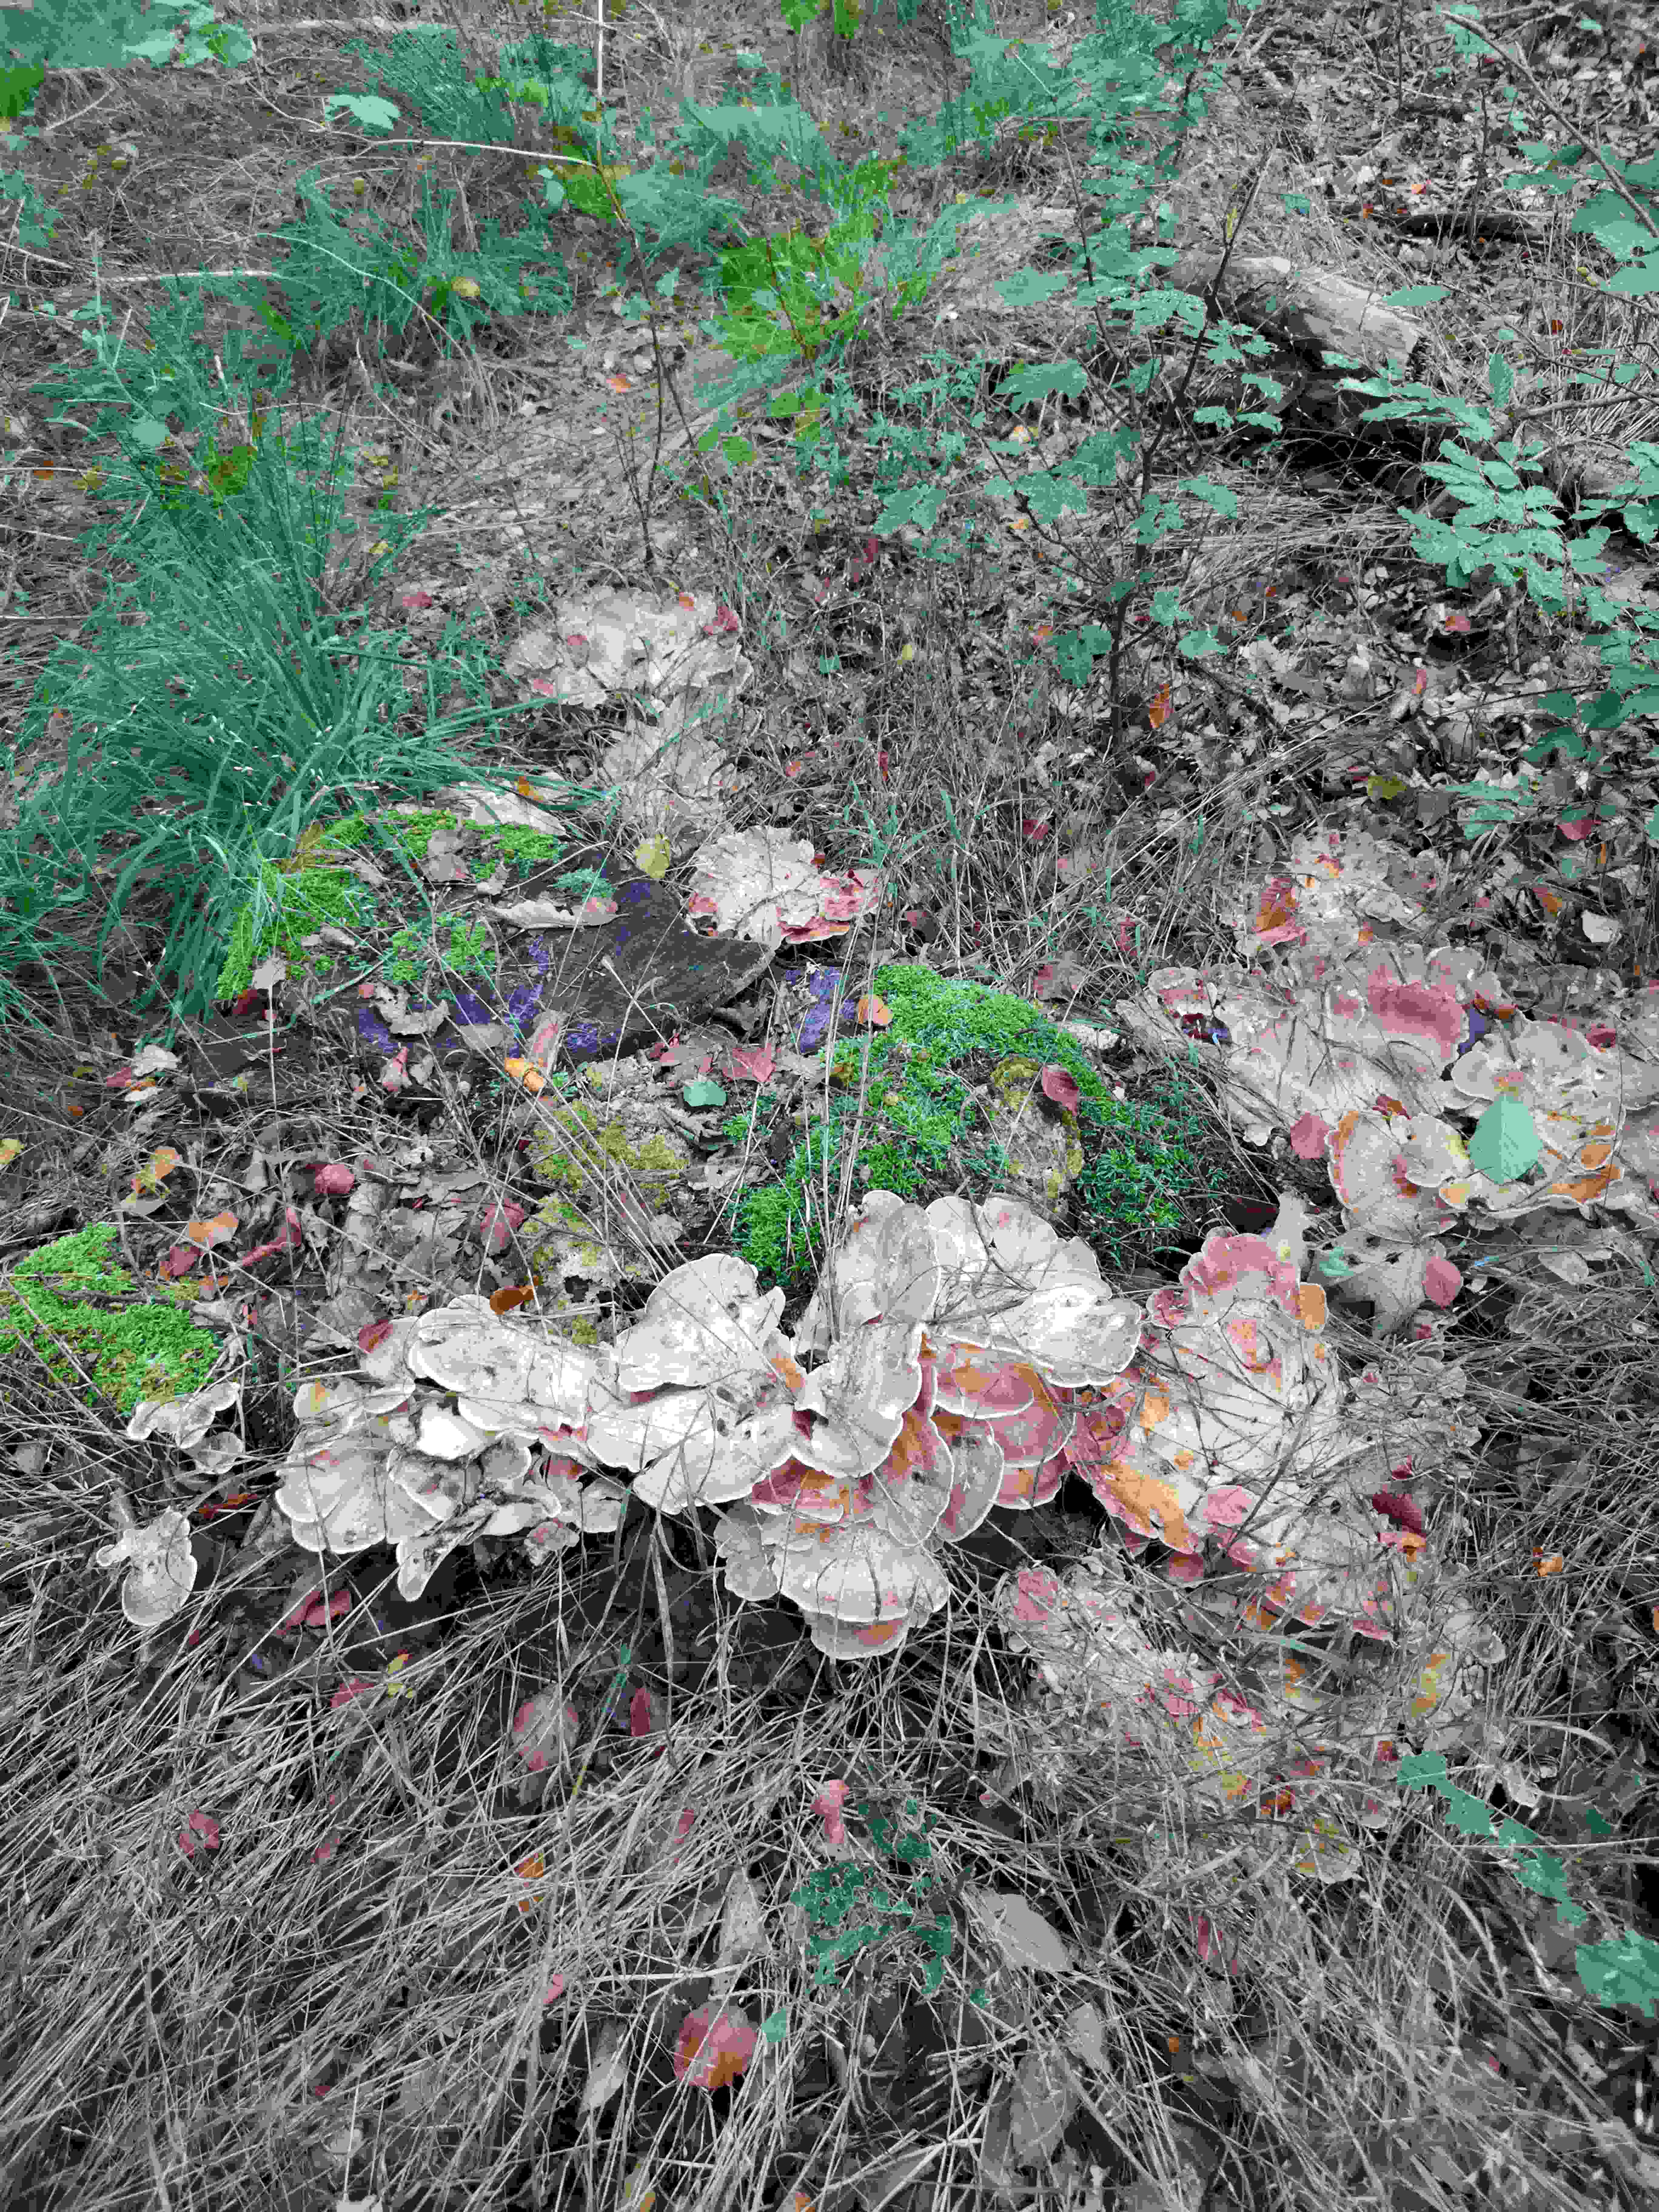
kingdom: Fungi
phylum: Basidiomycota
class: Agaricomycetes
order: Polyporales
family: Meripilaceae
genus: Meripilus
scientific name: Meripilus giganteus
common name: kæmpeporesvamp
